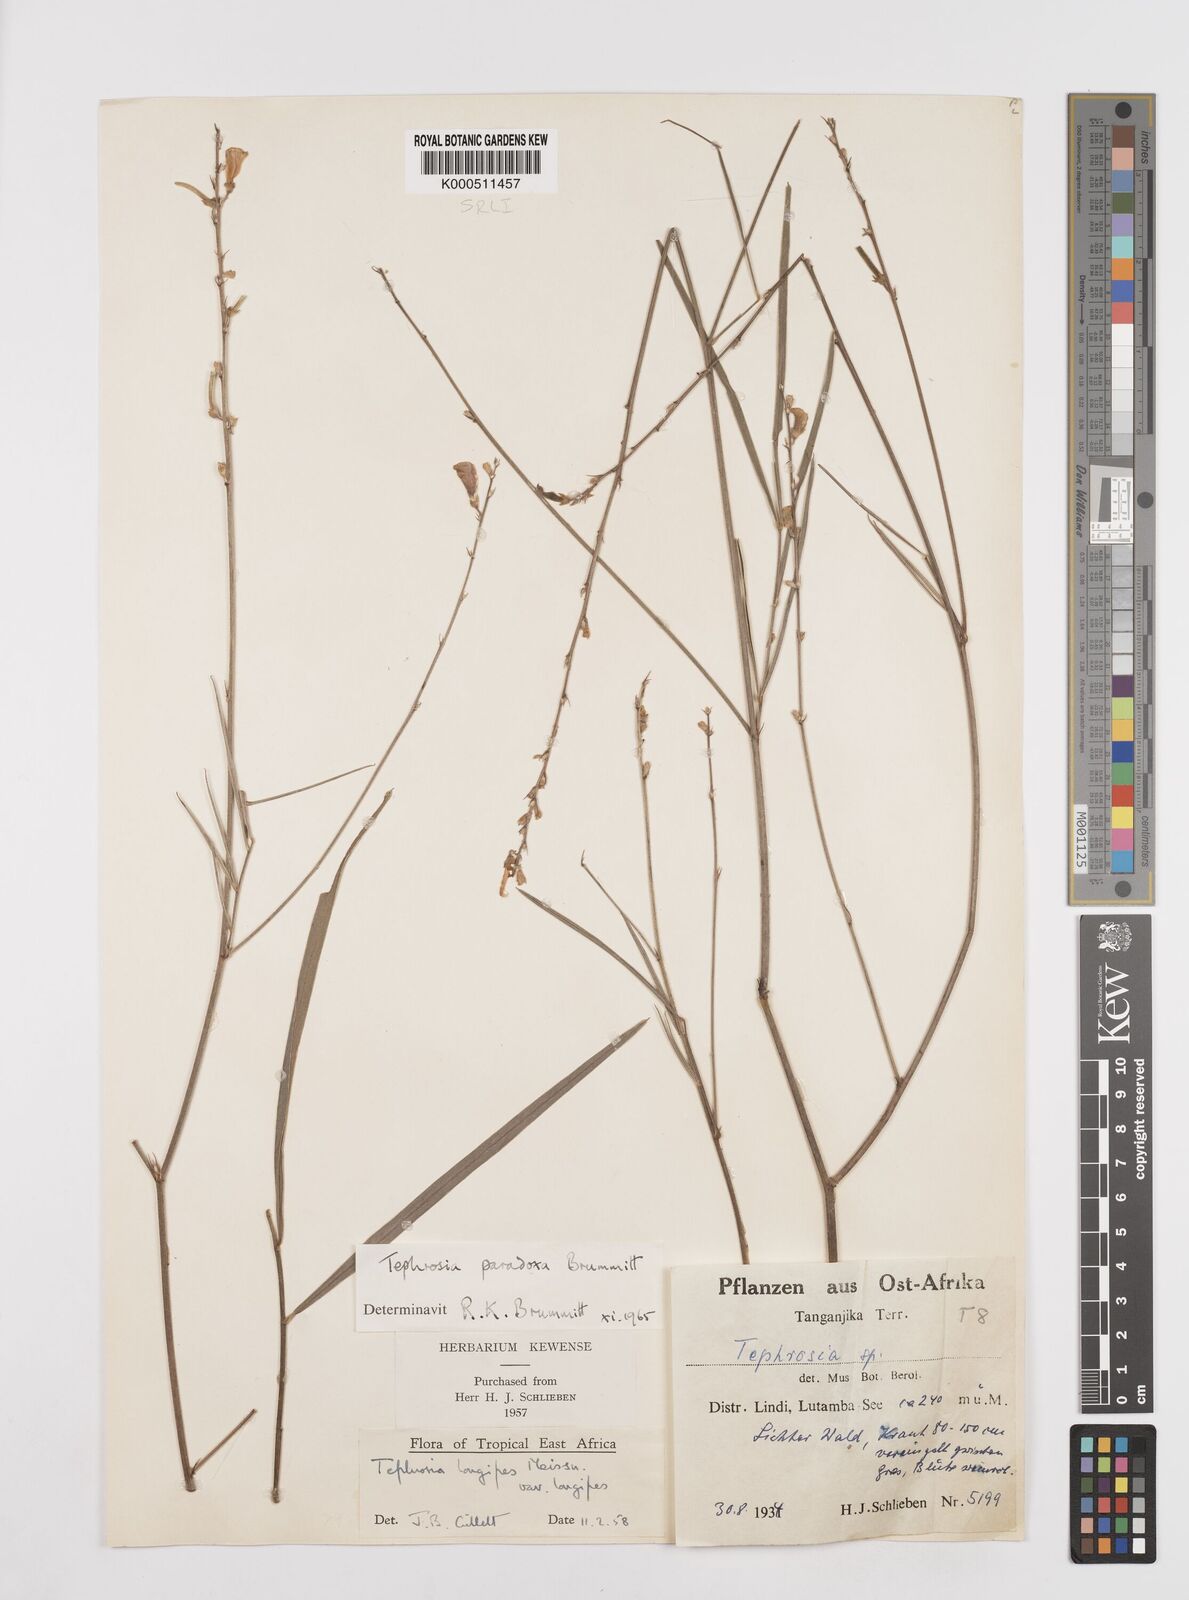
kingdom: Plantae
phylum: Tracheophyta
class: Magnoliopsida
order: Fabales
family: Fabaceae
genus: Tephrosia
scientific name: Tephrosia paradoxa
